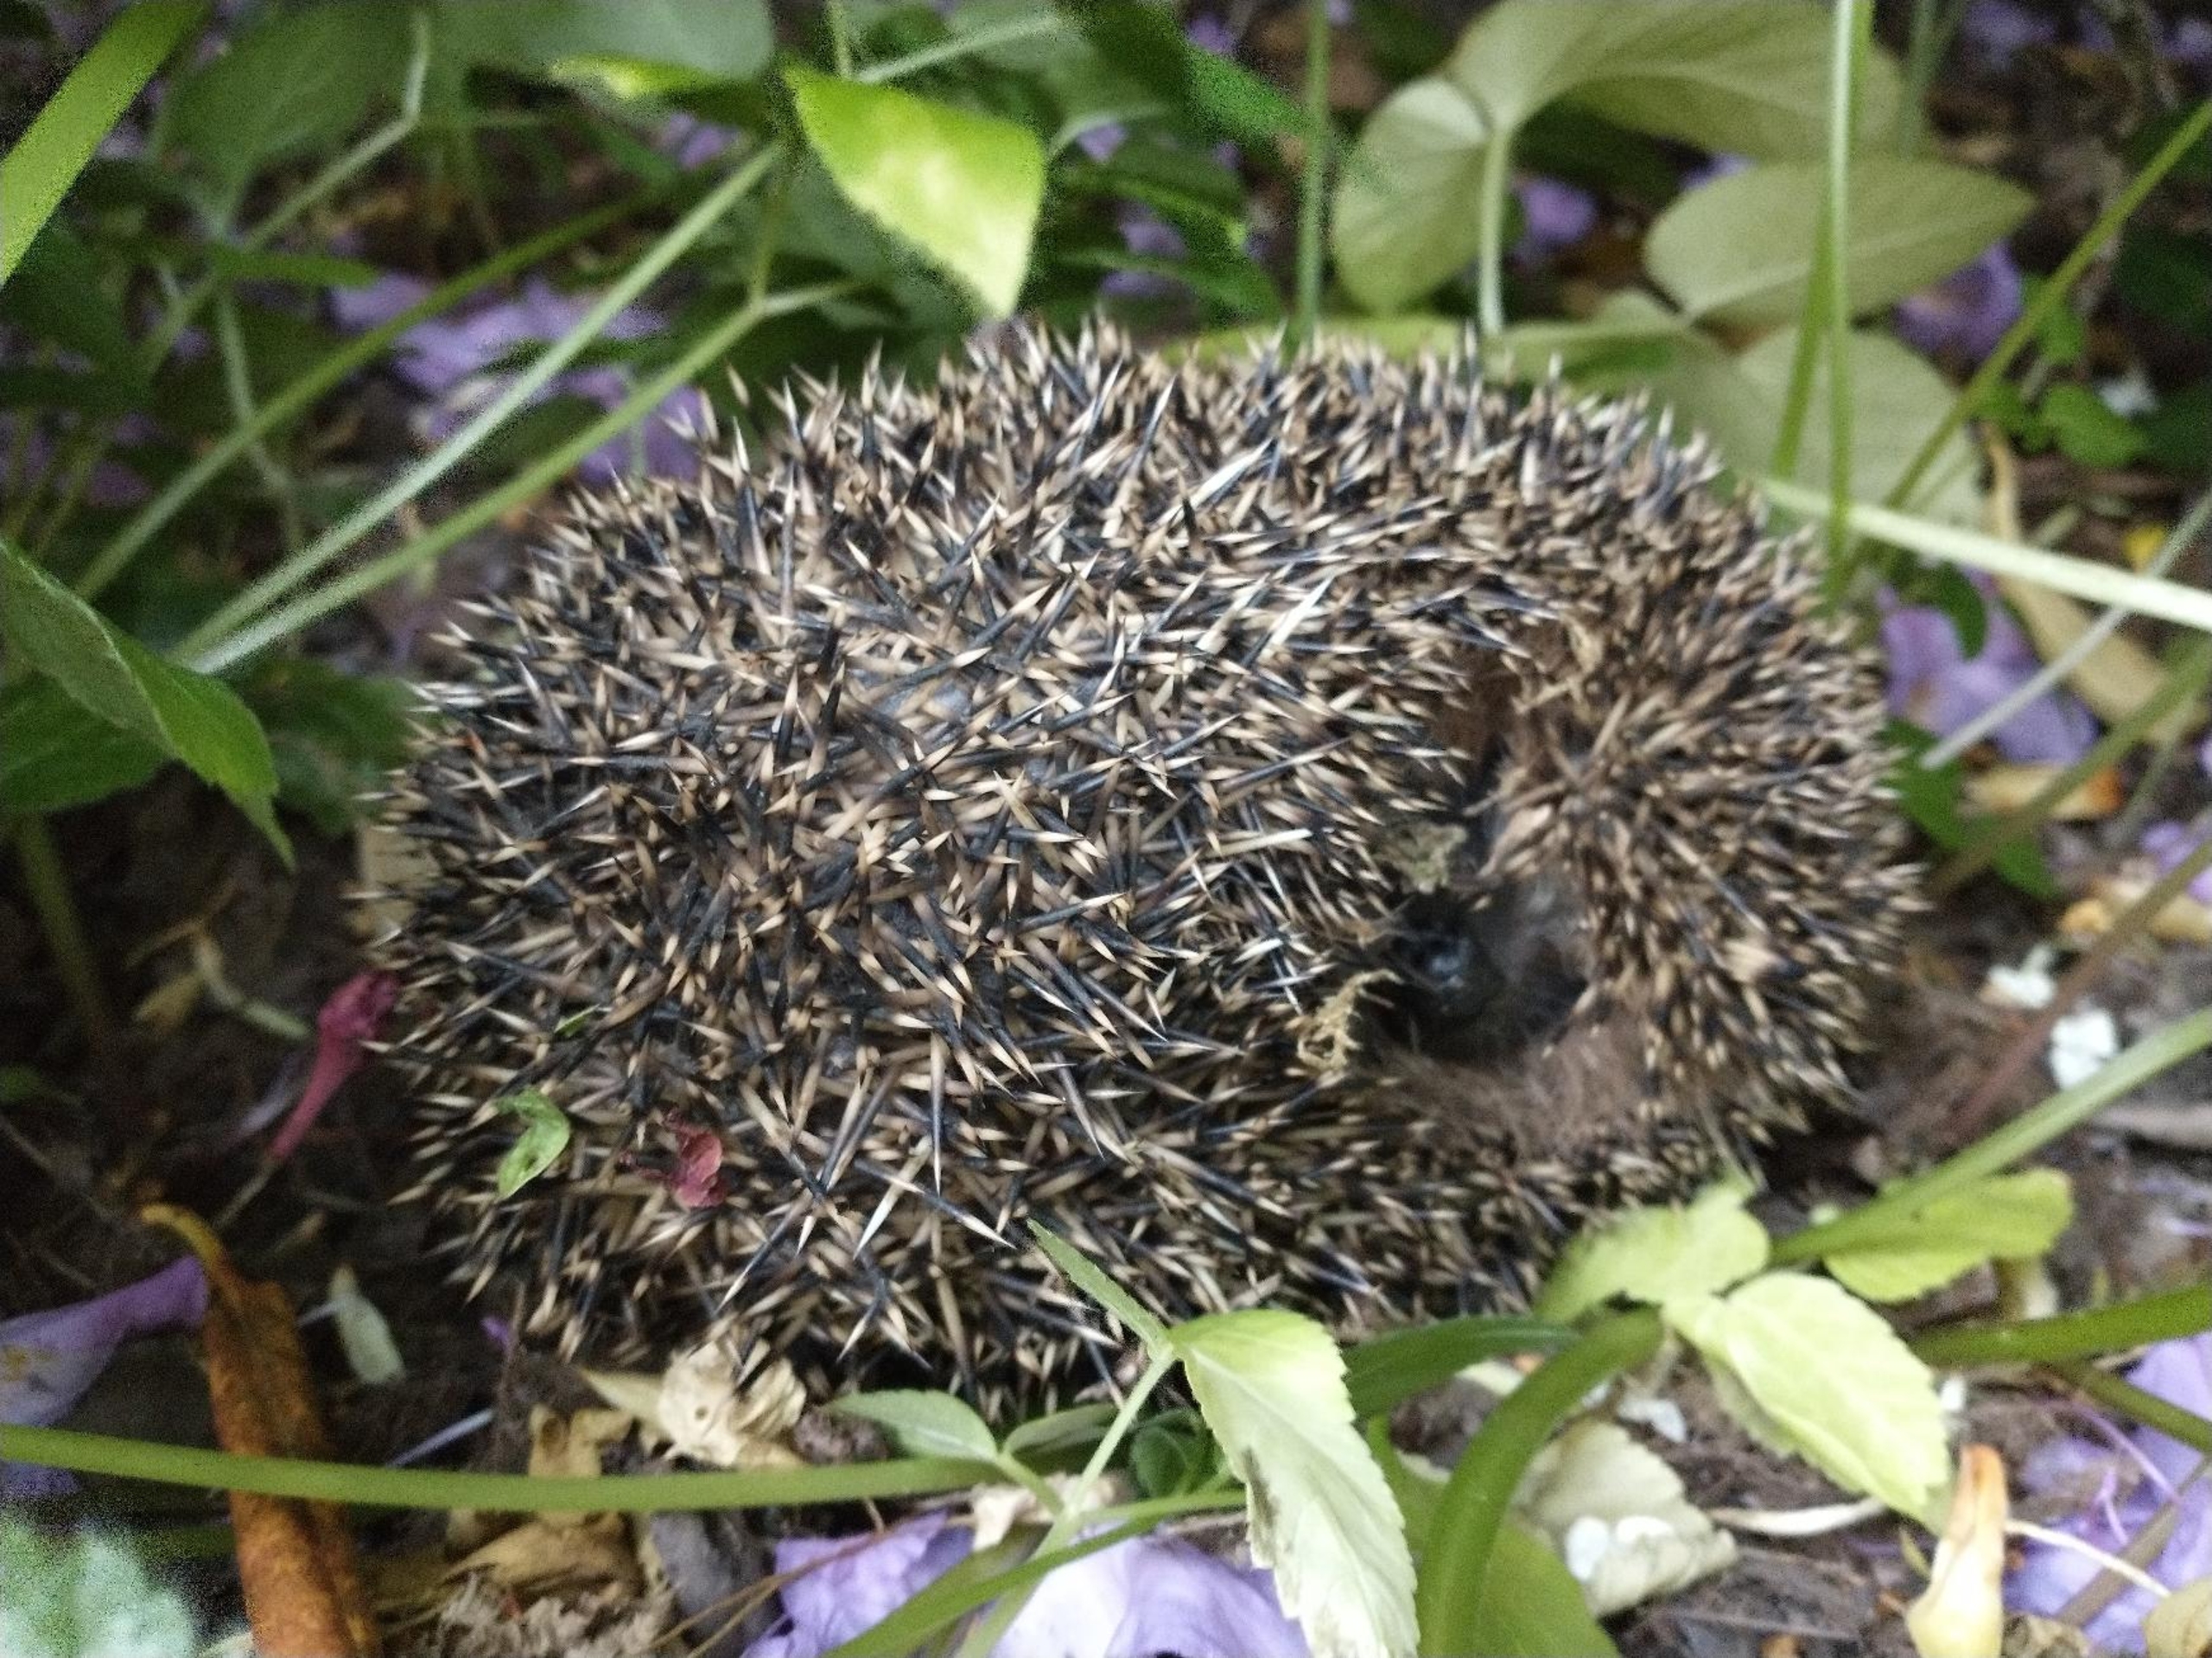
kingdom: Animalia
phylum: Chordata
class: Mammalia
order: Erinaceomorpha
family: Erinaceidae
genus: Erinaceus
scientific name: Erinaceus europaeus
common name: Pindsvin
